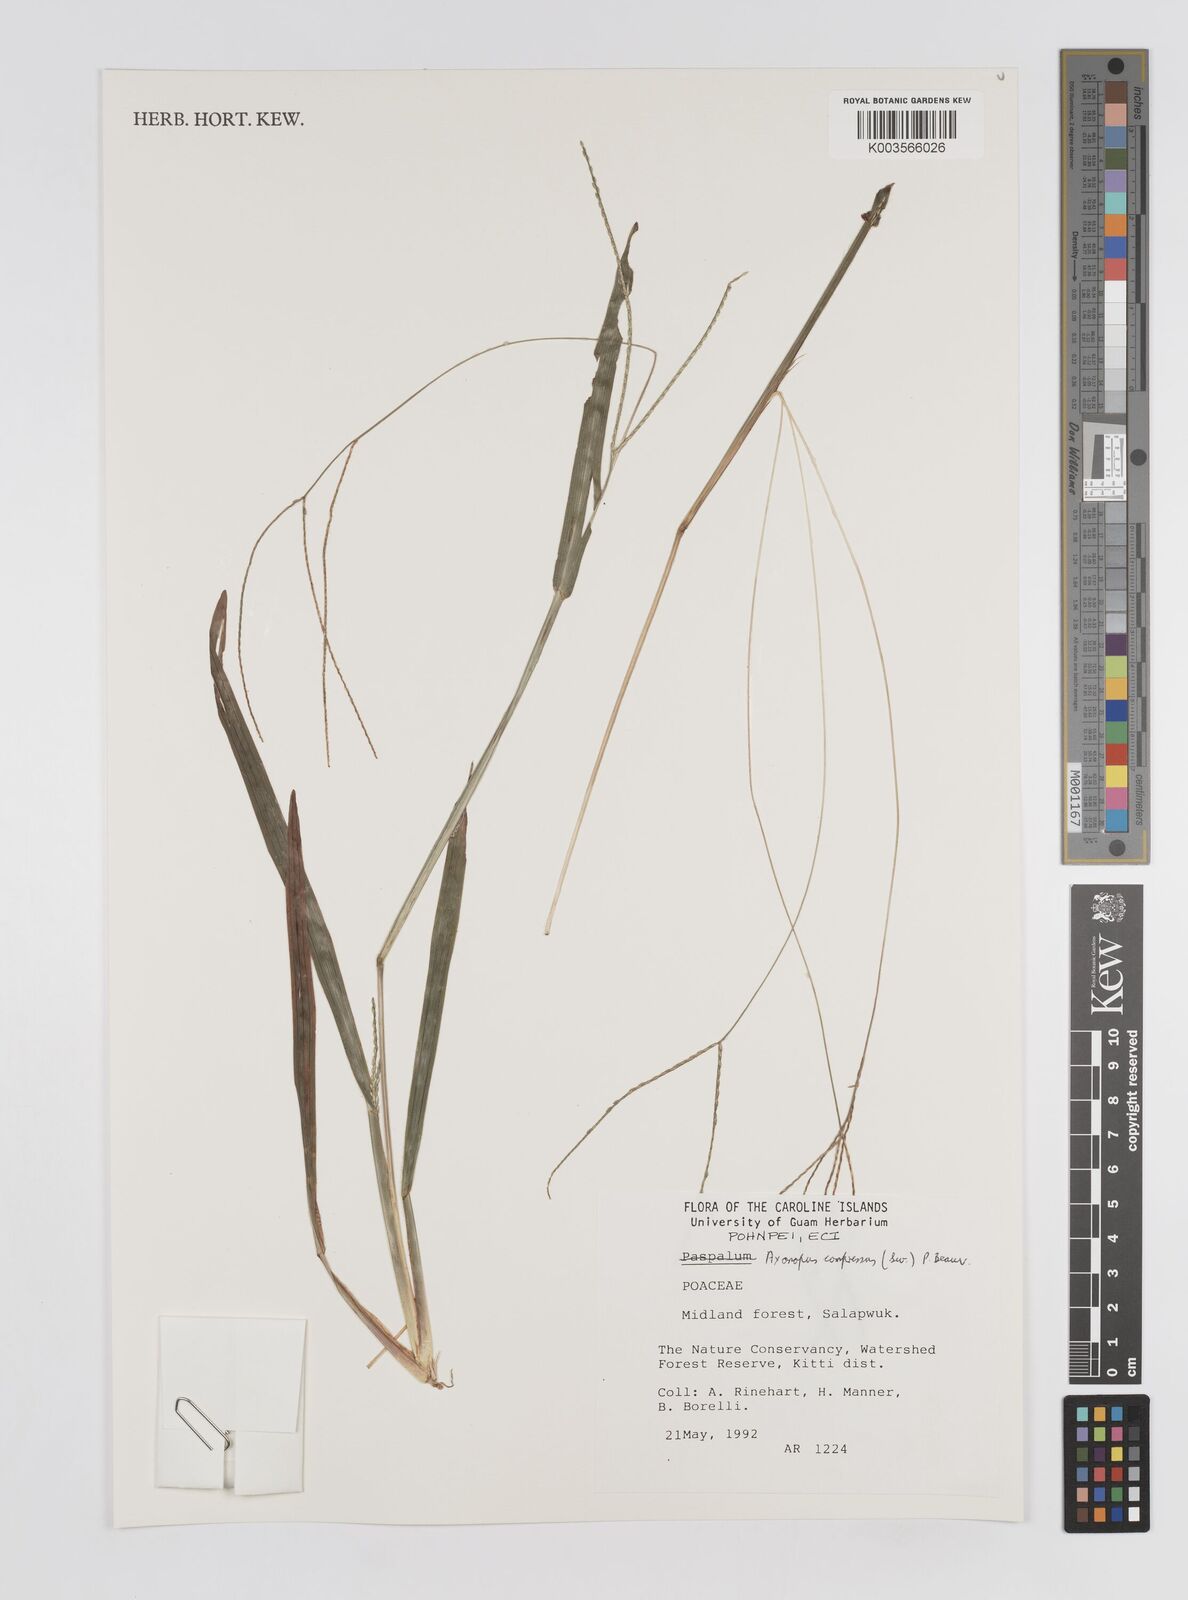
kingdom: Plantae
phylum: Tracheophyta
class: Liliopsida
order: Poales
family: Poaceae
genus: Axonopus
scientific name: Axonopus compressus
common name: American carpet grass
